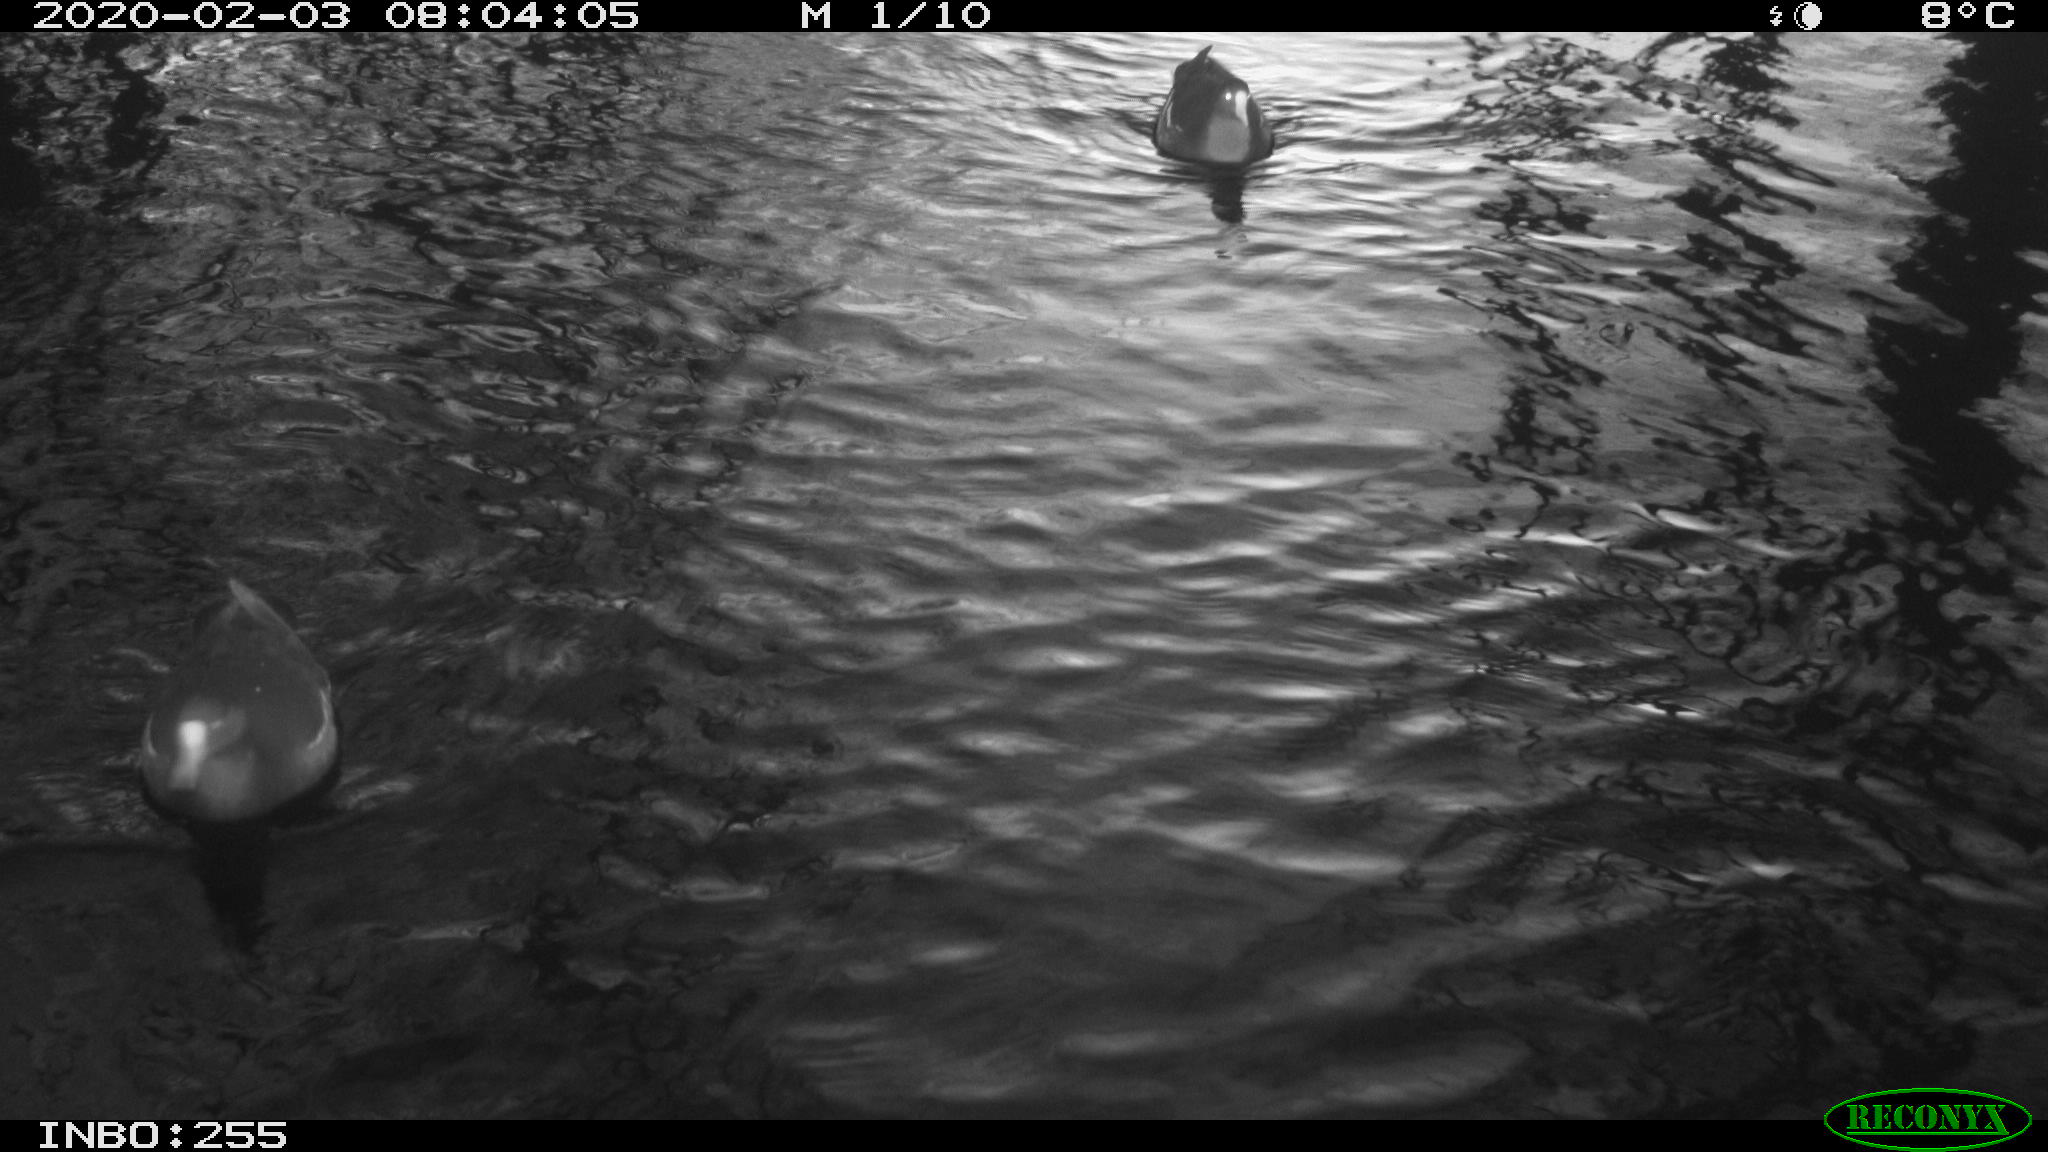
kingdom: Animalia
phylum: Chordata
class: Aves
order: Gruiformes
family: Rallidae
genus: Fulica
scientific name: Fulica atra
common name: Eurasian coot
